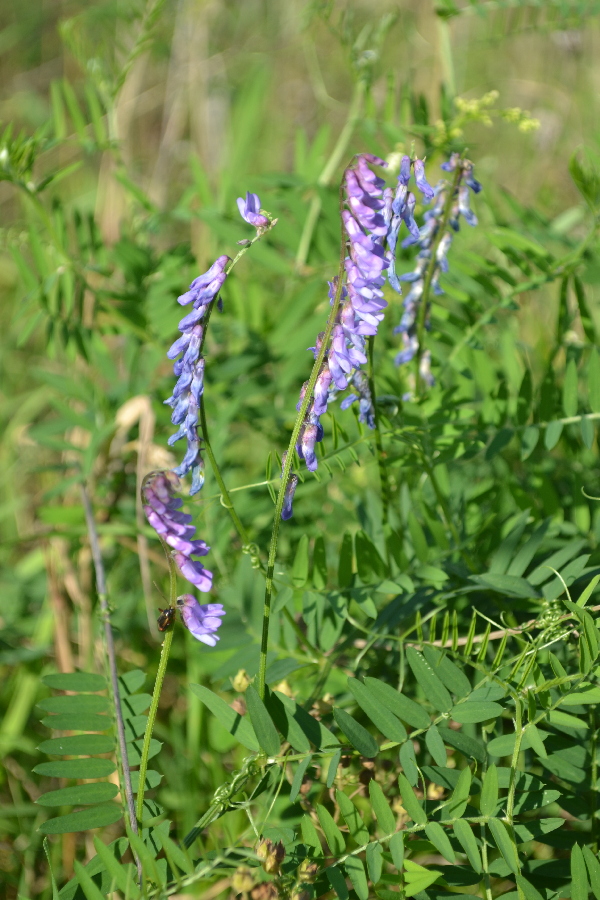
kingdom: Plantae
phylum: Tracheophyta
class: Magnoliopsida
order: Fabales
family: Fabaceae
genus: Galega
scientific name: Galega orientalis
